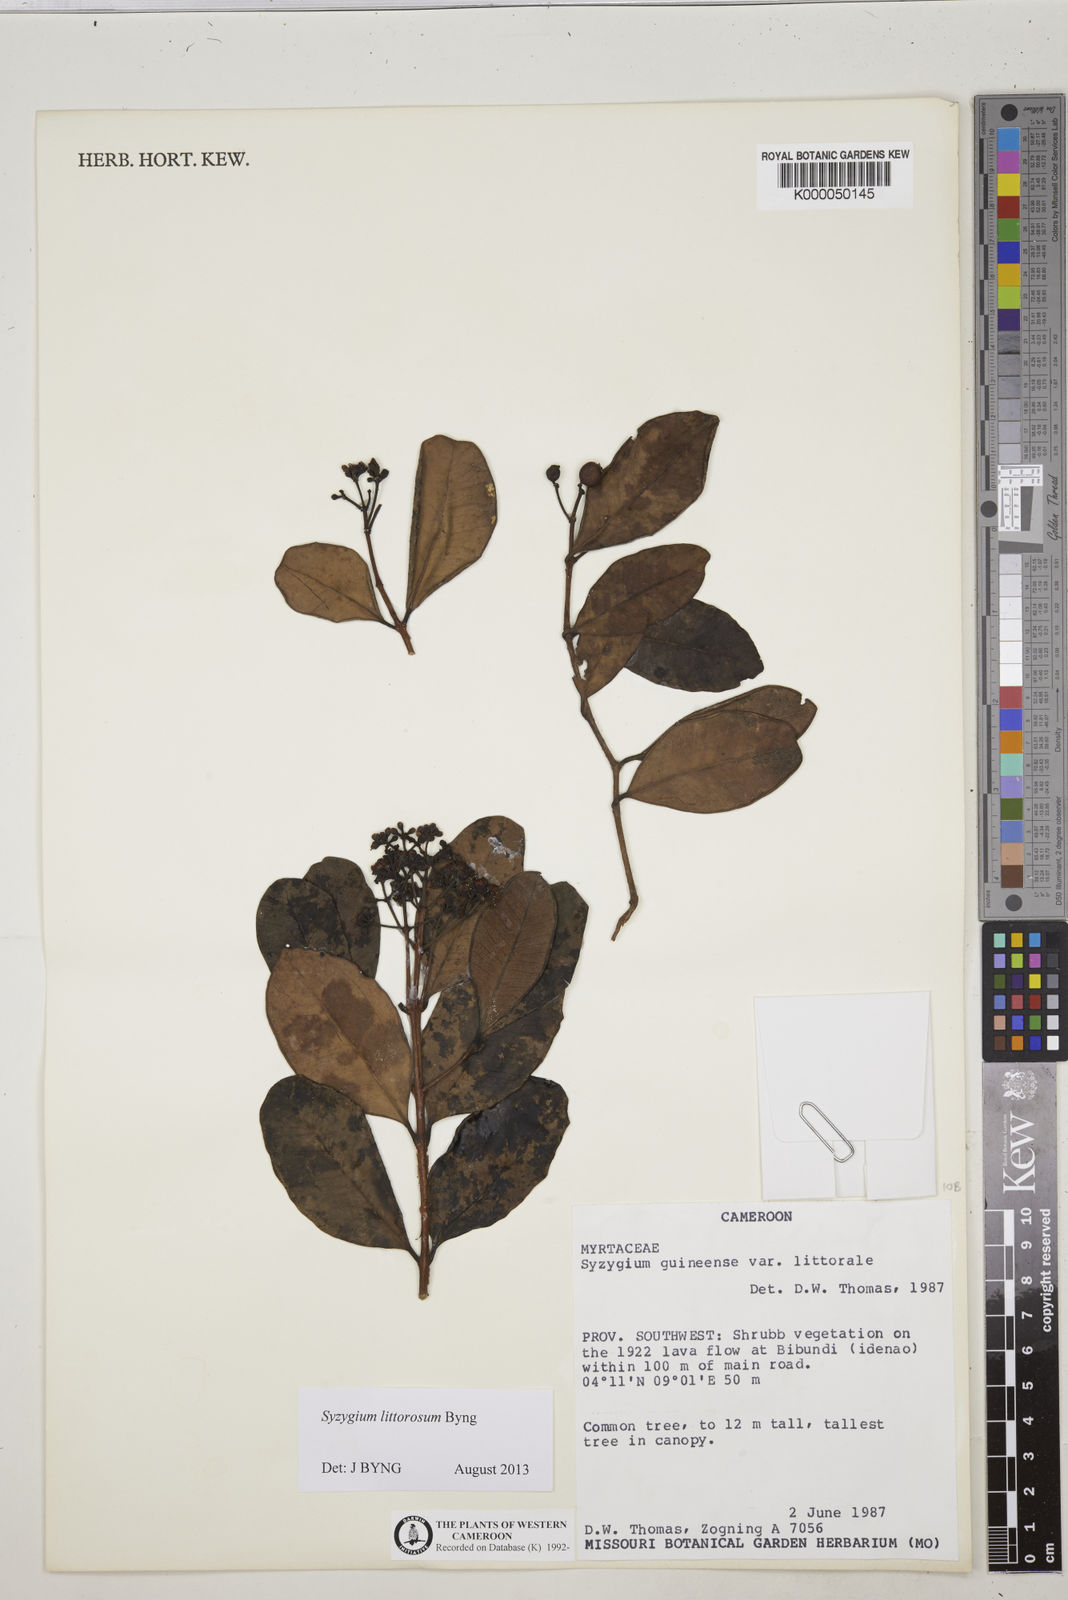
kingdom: Plantae
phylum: Tracheophyta
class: Magnoliopsida
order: Myrtales
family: Myrtaceae
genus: Syzygium
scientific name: Syzygium guineense
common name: Water-pear
